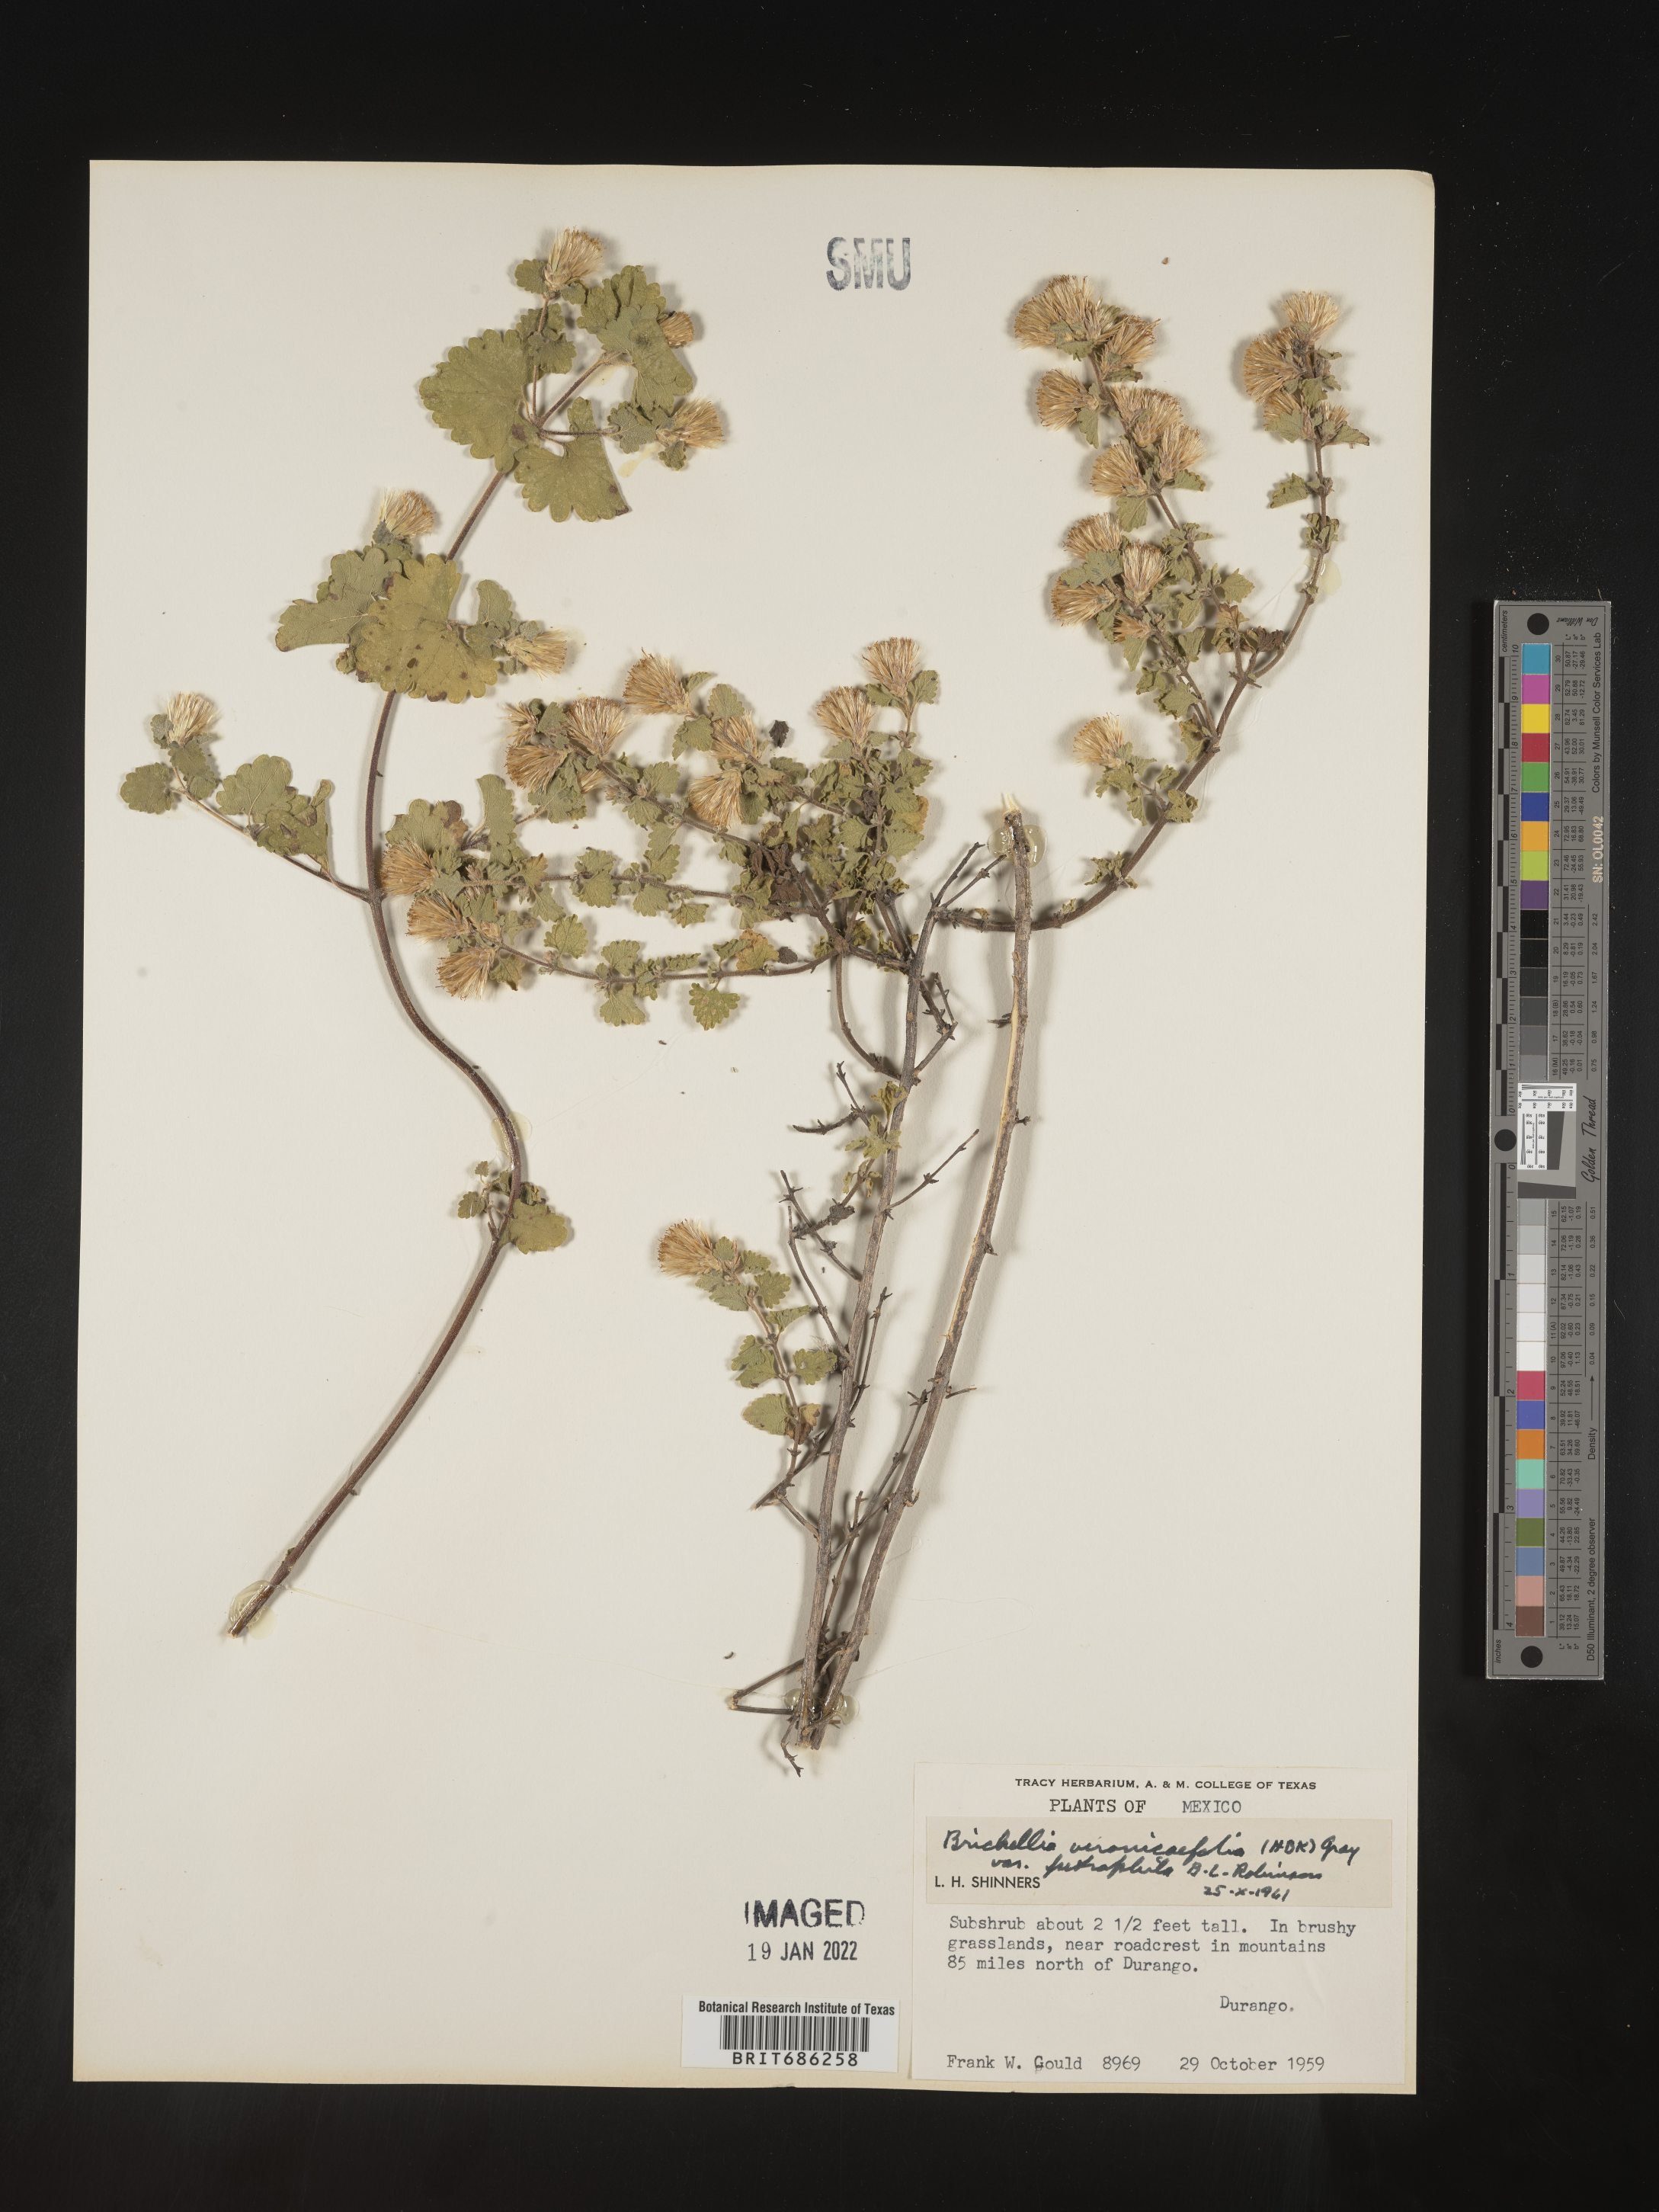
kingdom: Plantae
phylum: Tracheophyta
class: Magnoliopsida
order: Asterales
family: Asteraceae
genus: Brickellia
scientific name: Brickellia veronicifolia
